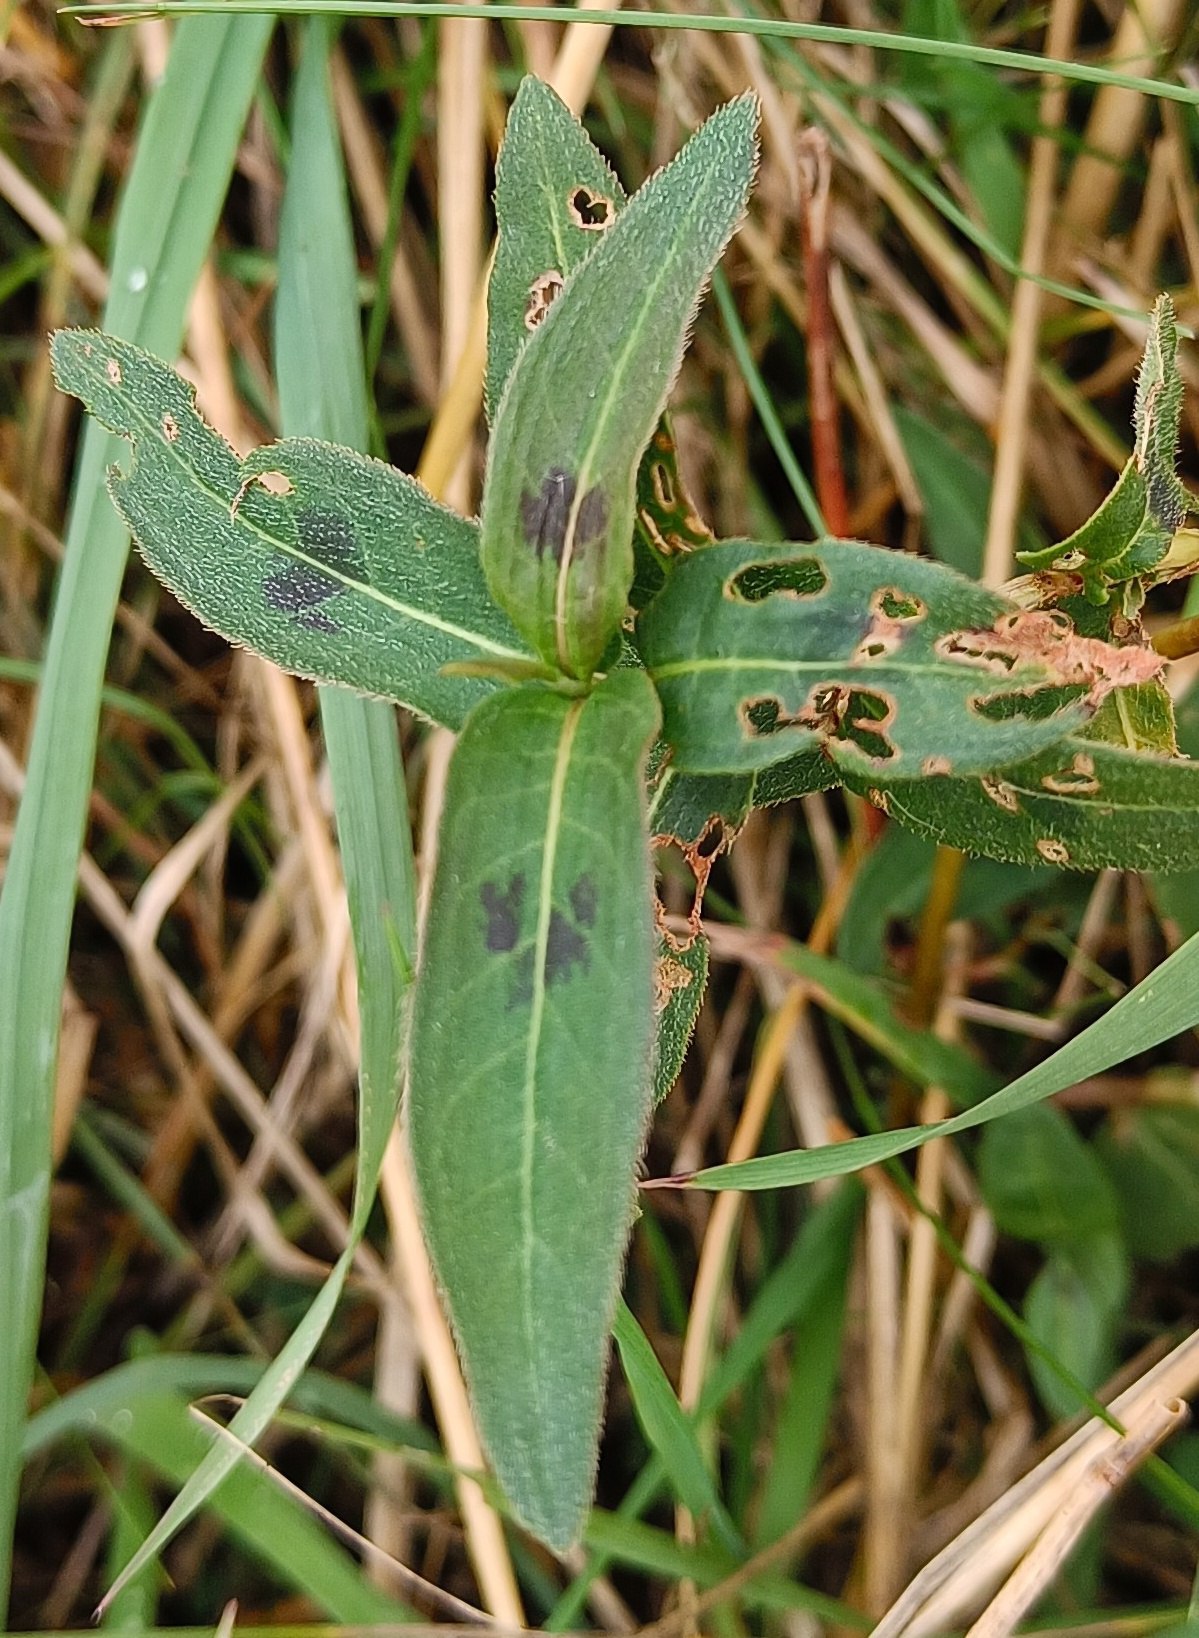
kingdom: Plantae
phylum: Tracheophyta
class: Magnoliopsida
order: Caryophyllales
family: Polygonaceae
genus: Persicaria
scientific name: Persicaria amphibia
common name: Vand-pileurt
